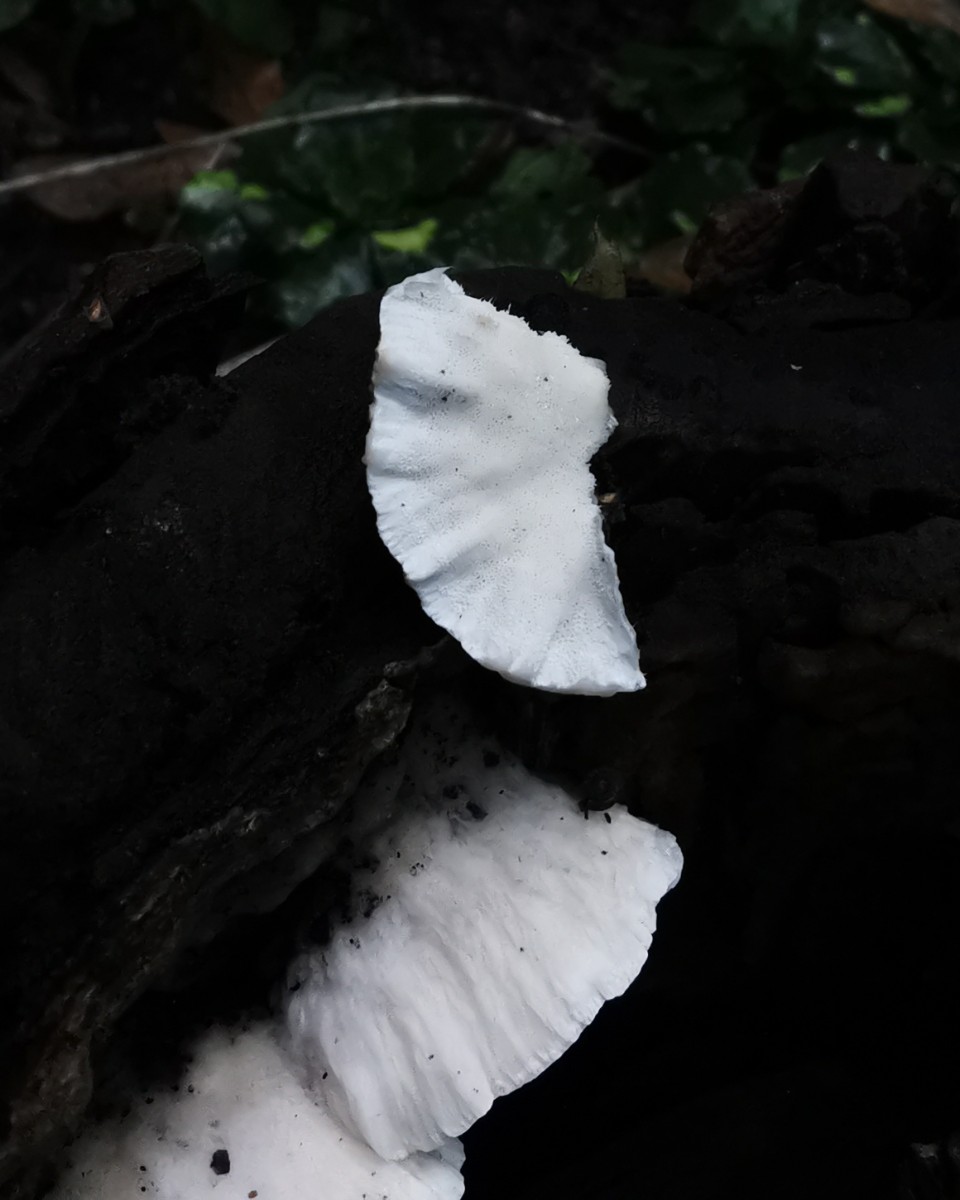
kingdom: Fungi
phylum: Basidiomycota
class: Agaricomycetes
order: Polyporales
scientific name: Polyporales
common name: poresvampordenen
